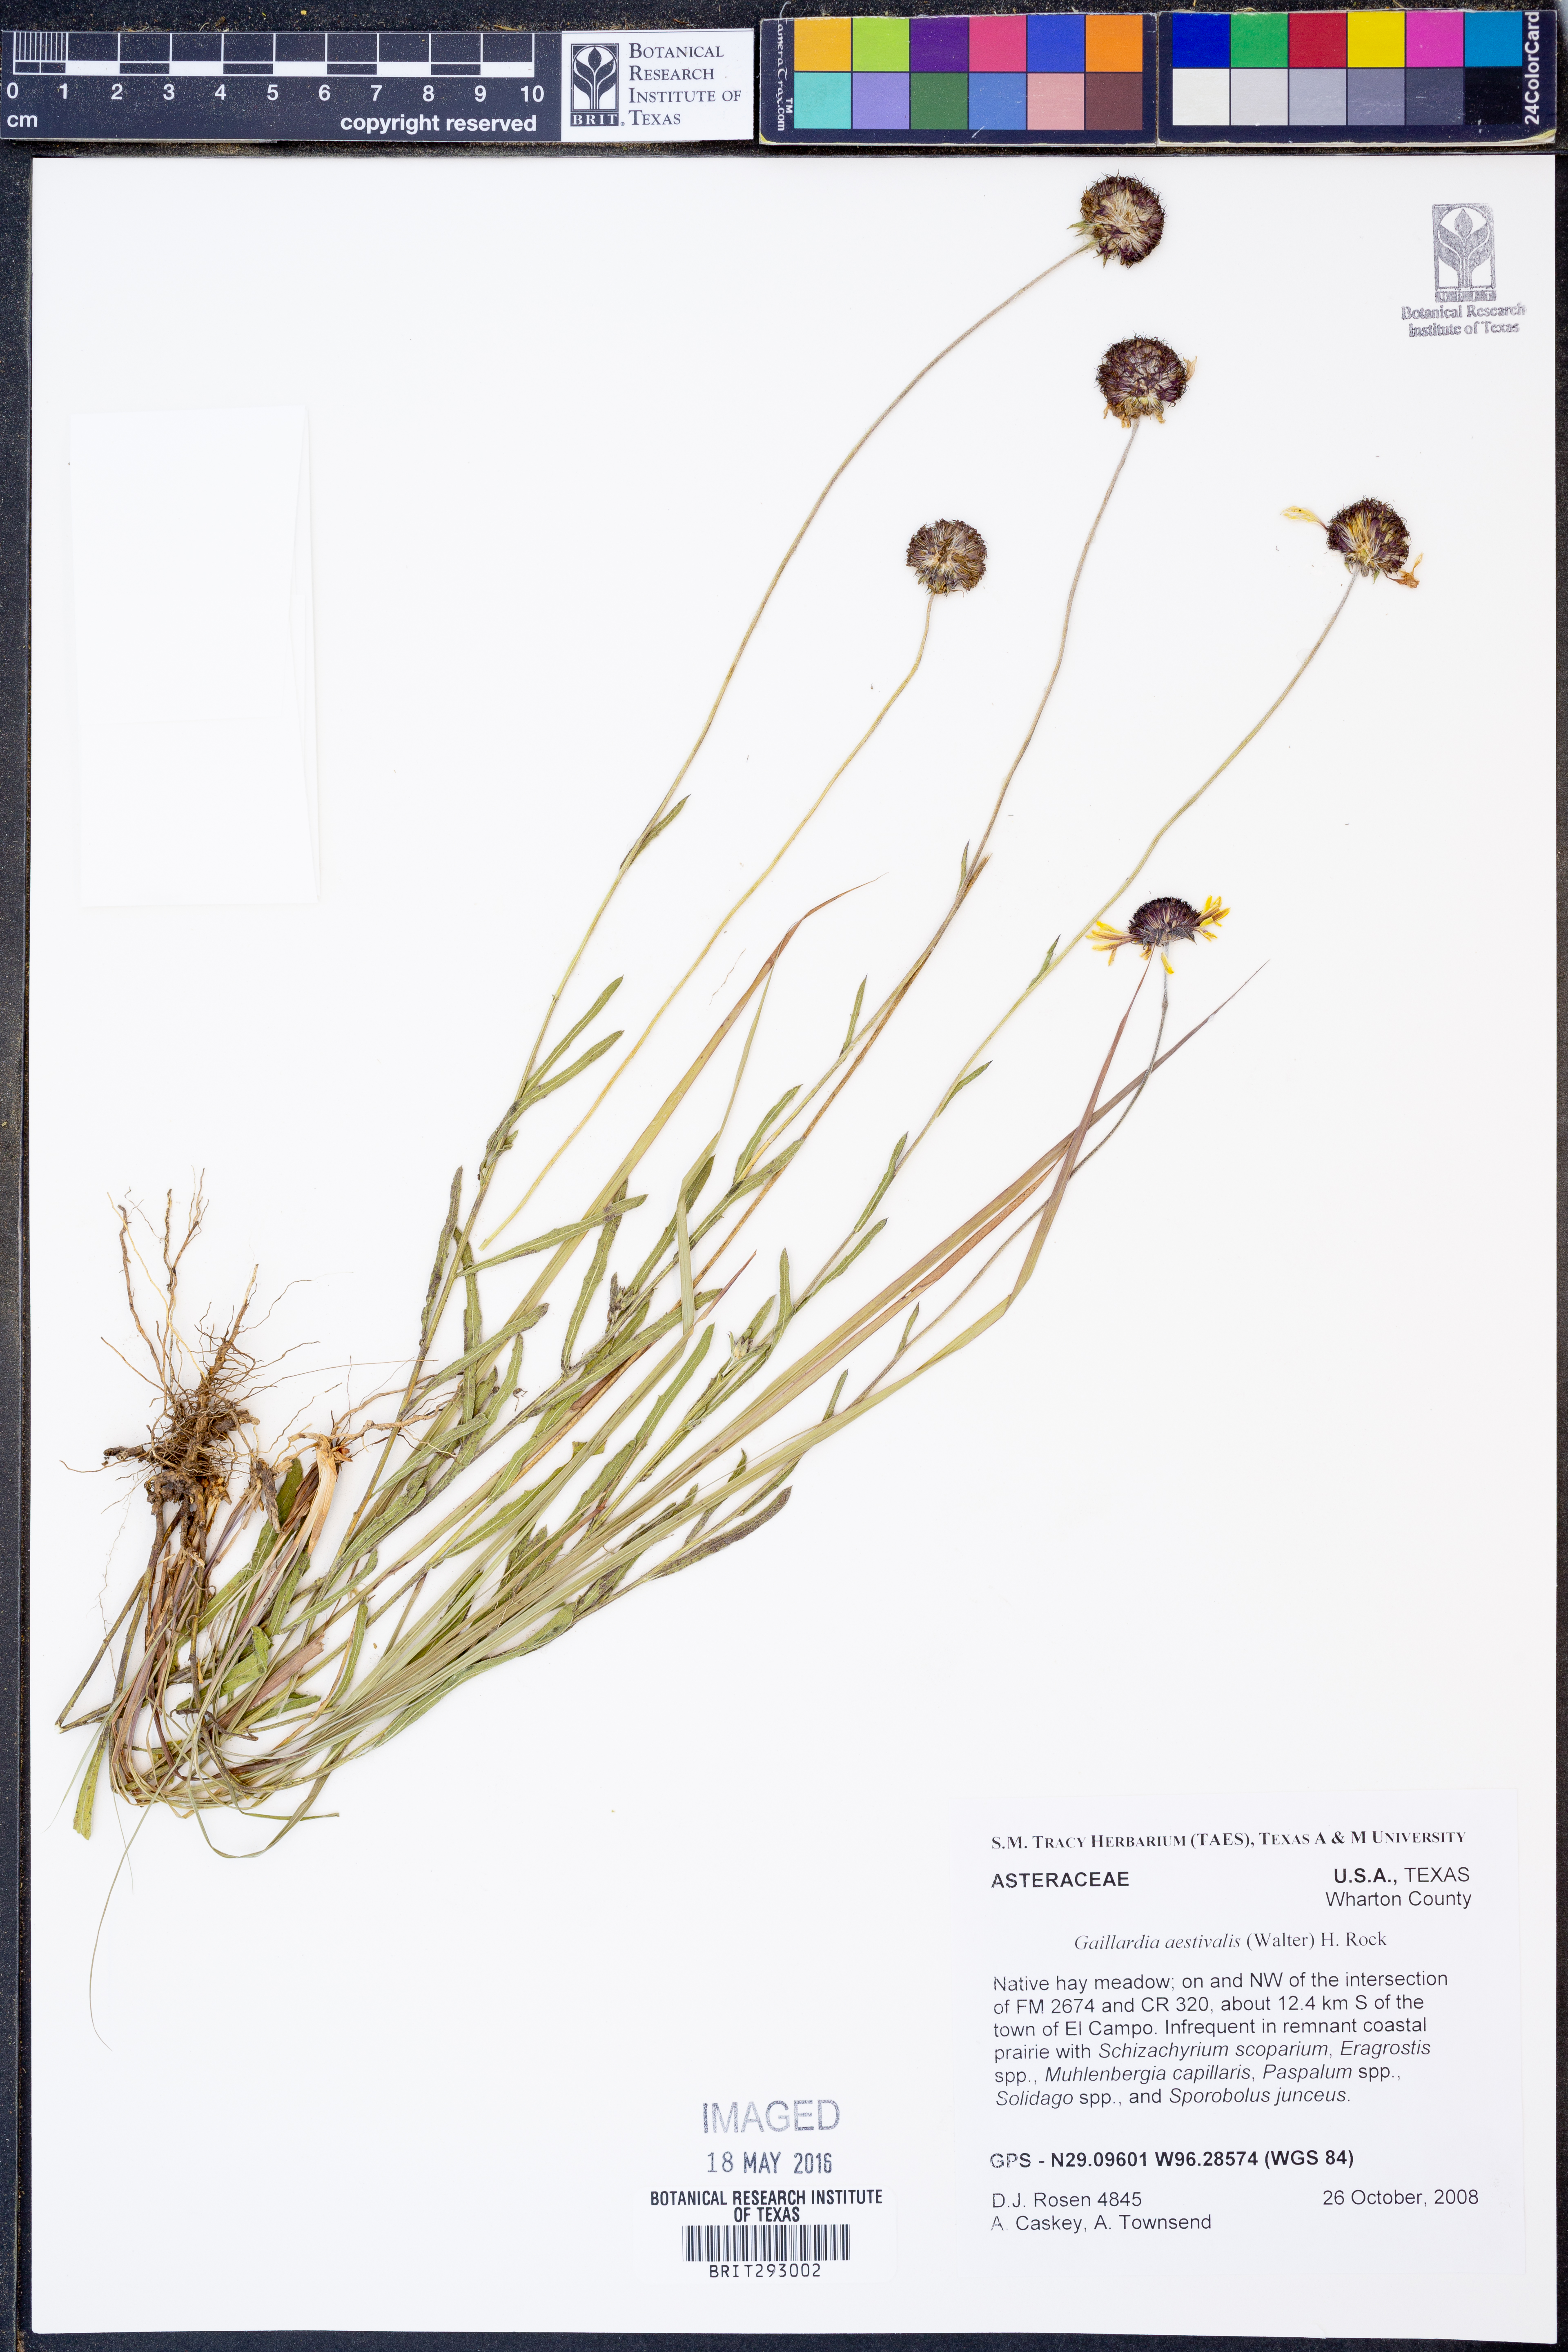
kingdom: Plantae
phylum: Tracheophyta
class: Magnoliopsida
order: Asterales
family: Asteraceae
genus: Gaillardia
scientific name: Gaillardia aestivalis
